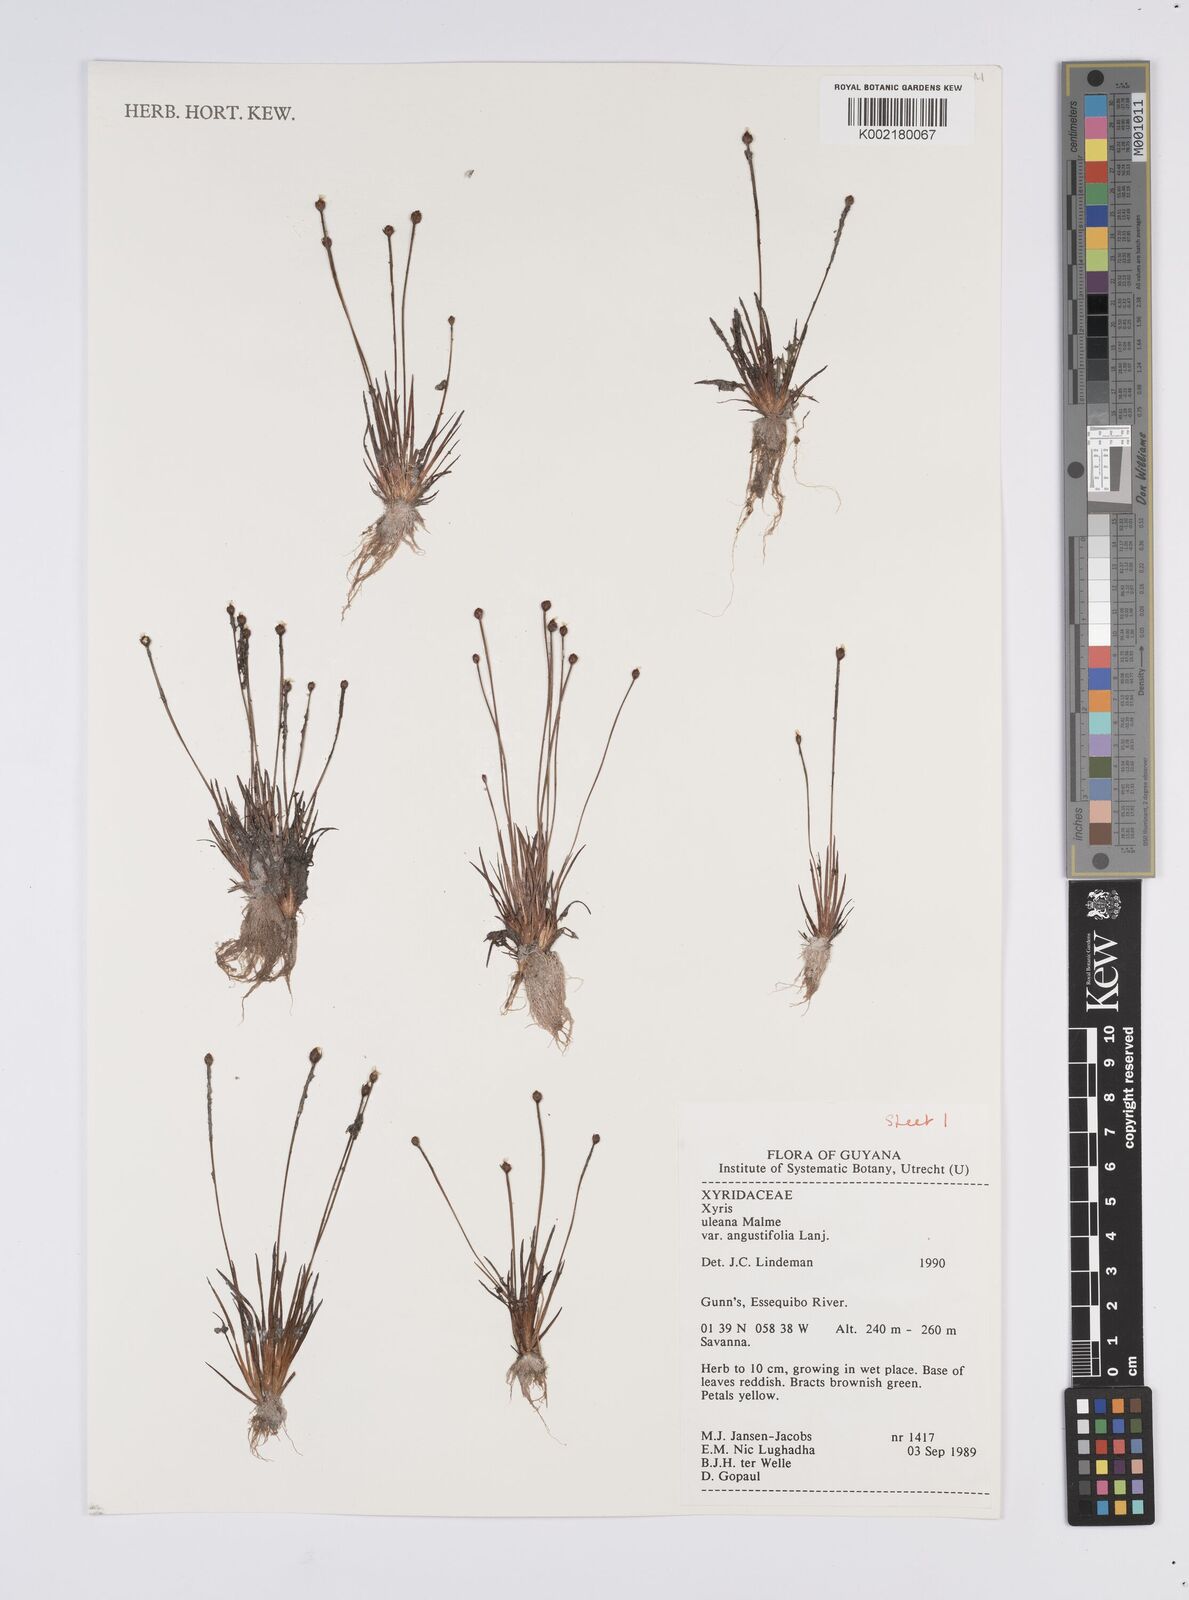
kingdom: Plantae
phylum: Tracheophyta
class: Liliopsida
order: Poales
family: Xyridaceae
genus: Xyris
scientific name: Xyris uleana
